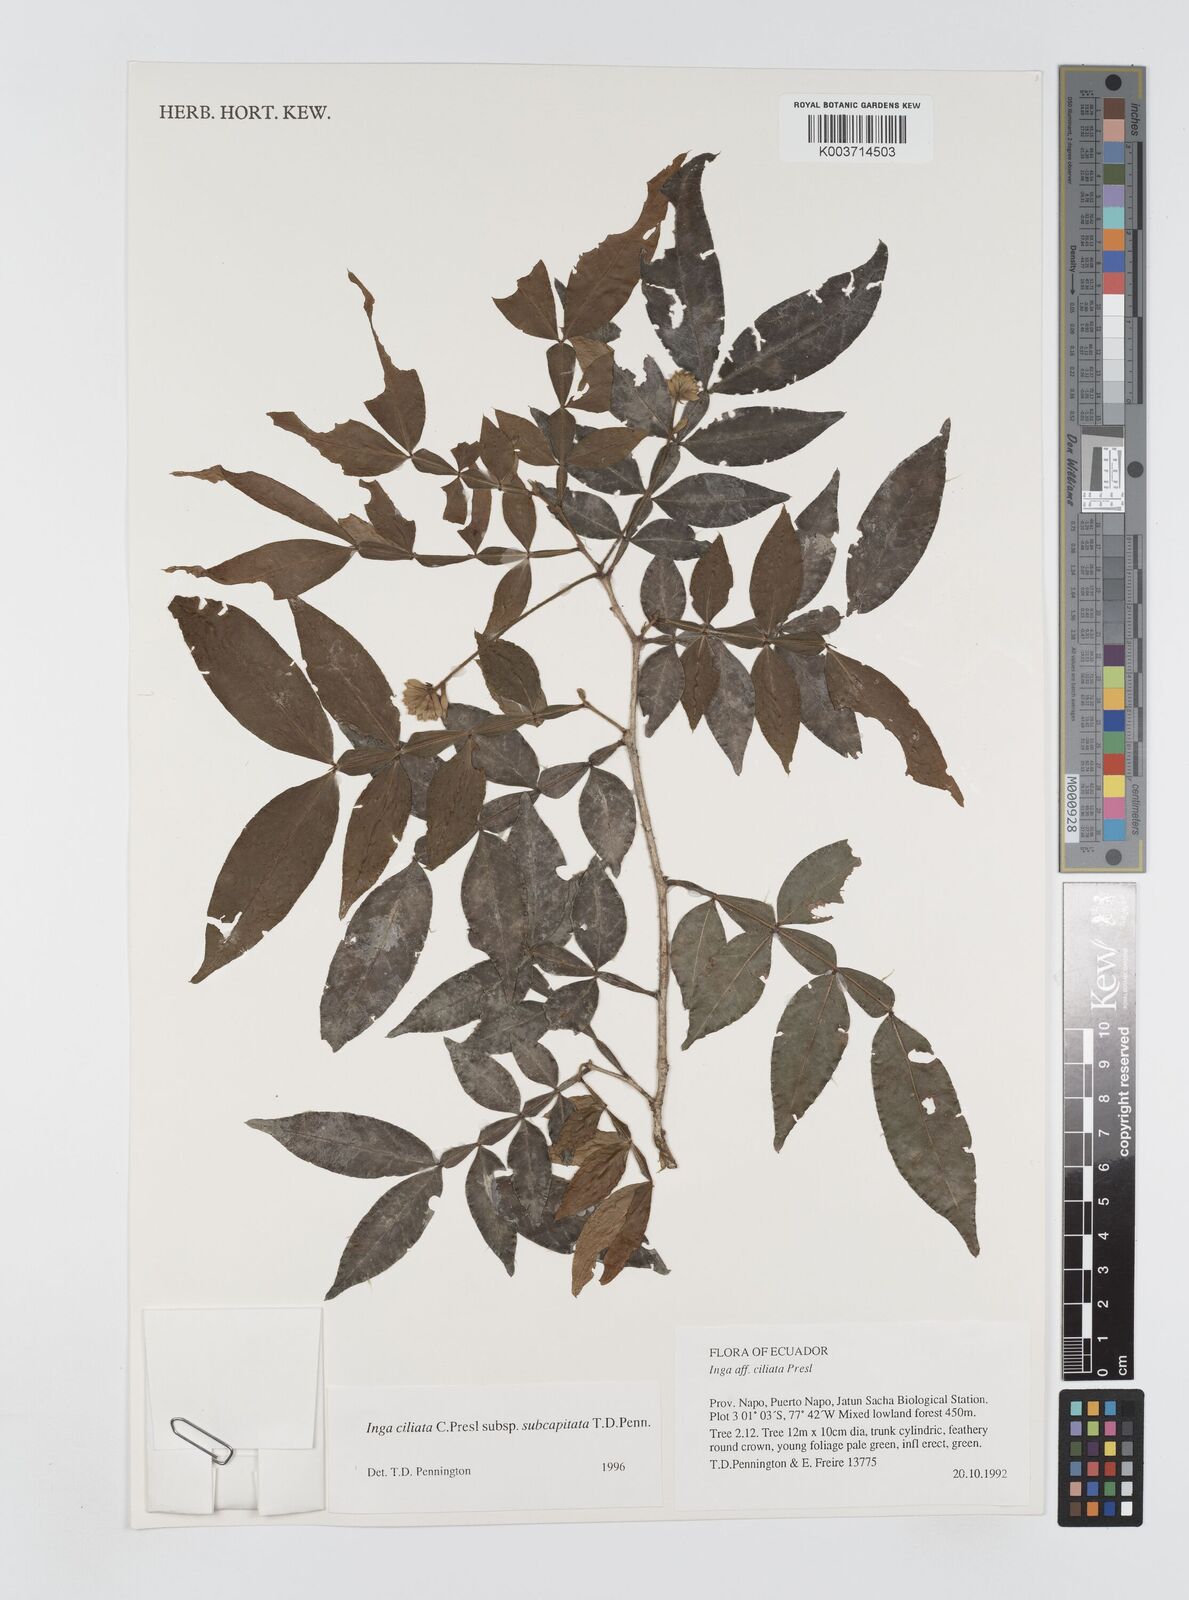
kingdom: Plantae
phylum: Tracheophyta
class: Magnoliopsida
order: Fabales
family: Fabaceae
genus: Inga
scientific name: Inga ciliata
